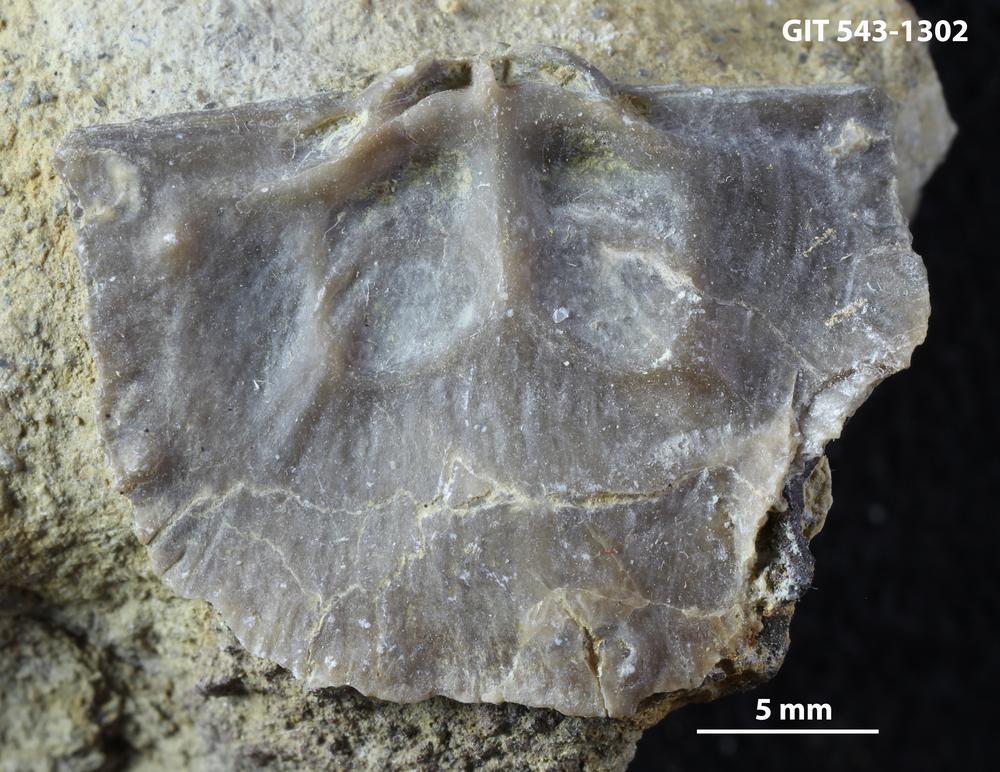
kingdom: Animalia
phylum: Brachiopoda
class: Rhynchonellata
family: Clitambonitidae
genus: Vellamo
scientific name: Vellamo oandoensis
